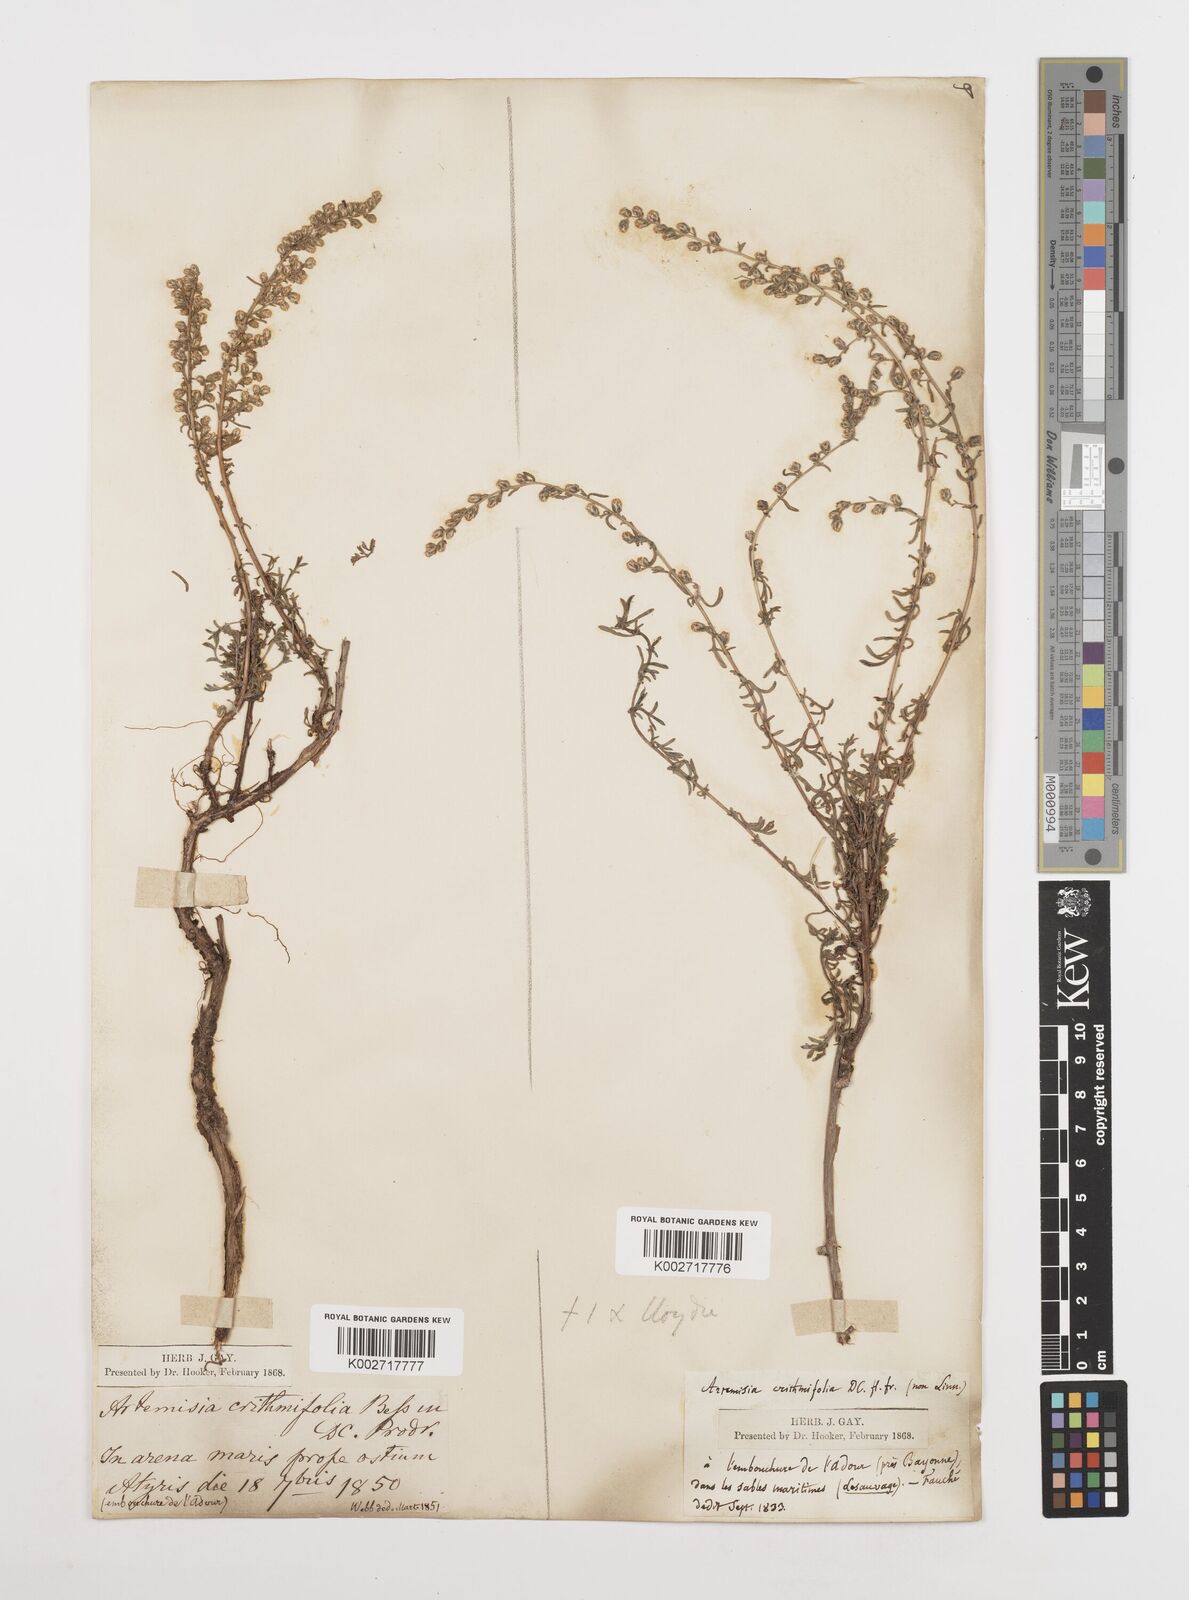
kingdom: Plantae
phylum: Tracheophyta
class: Magnoliopsida
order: Asterales
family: Asteraceae
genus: Artemisia
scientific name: Artemisia campestris
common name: Field wormwood
